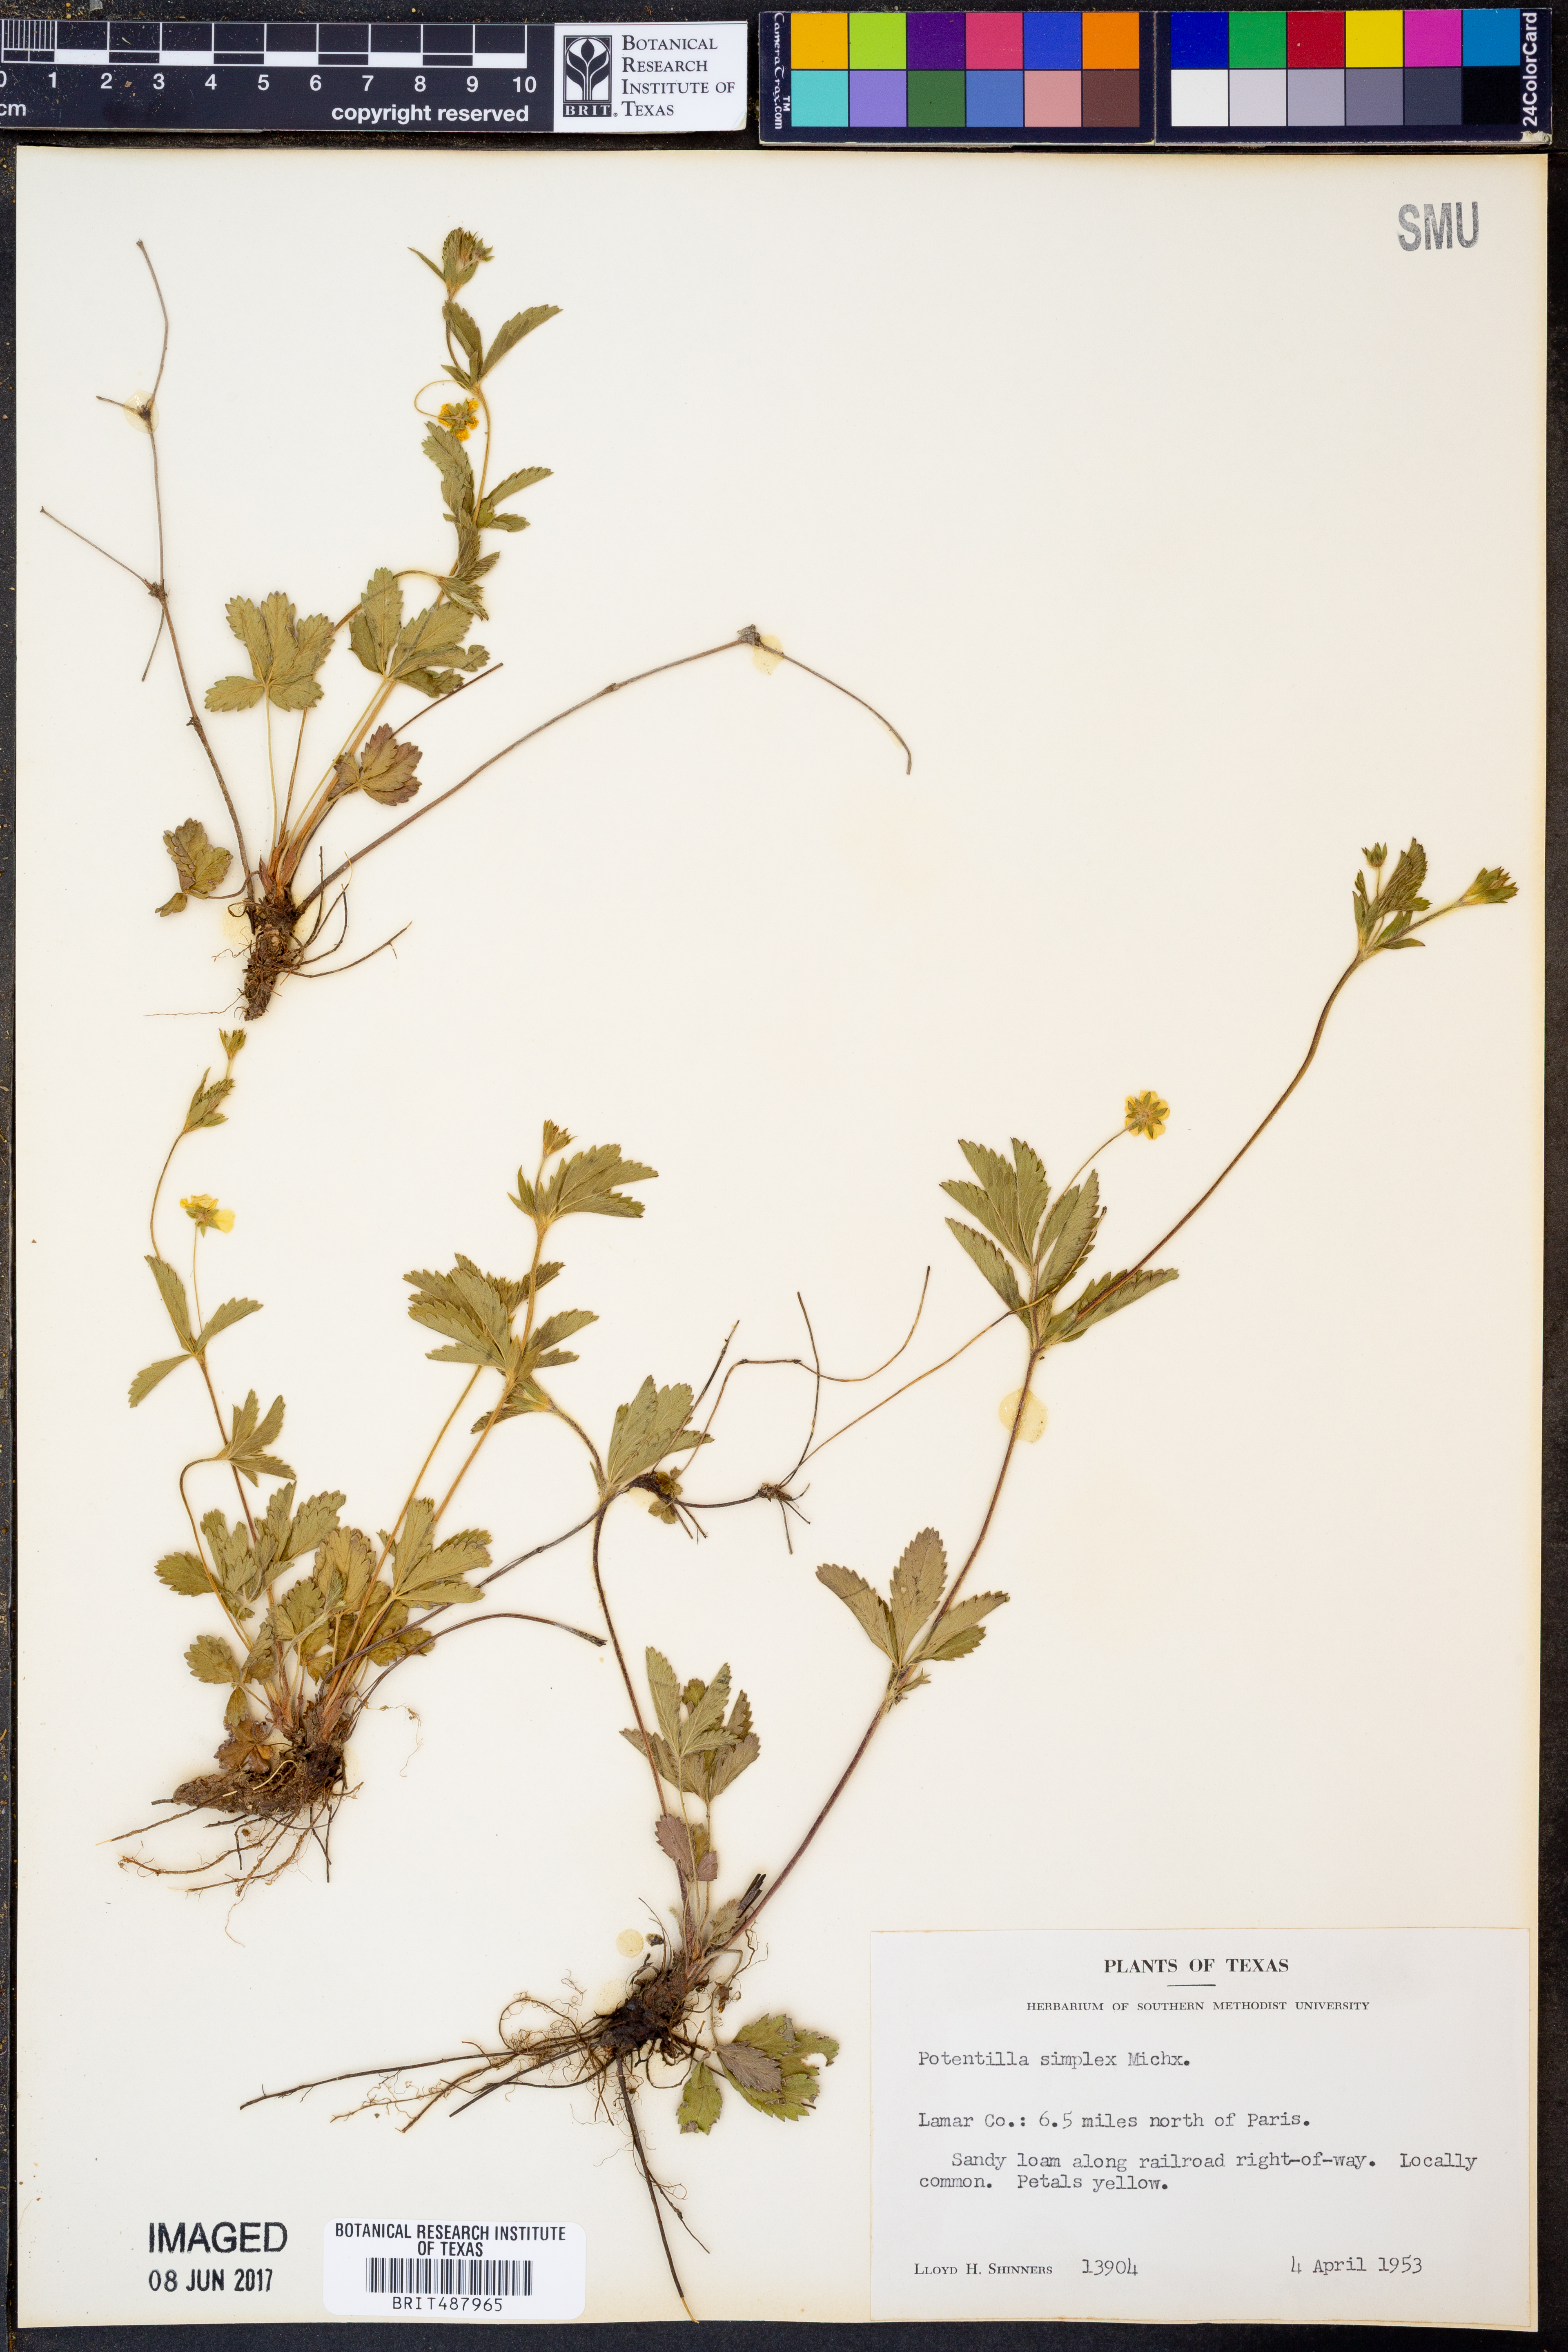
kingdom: Plantae
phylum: Tracheophyta
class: Magnoliopsida
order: Rosales
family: Rosaceae
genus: Potentilla
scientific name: Potentilla simplex
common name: Old field cinquefoil
